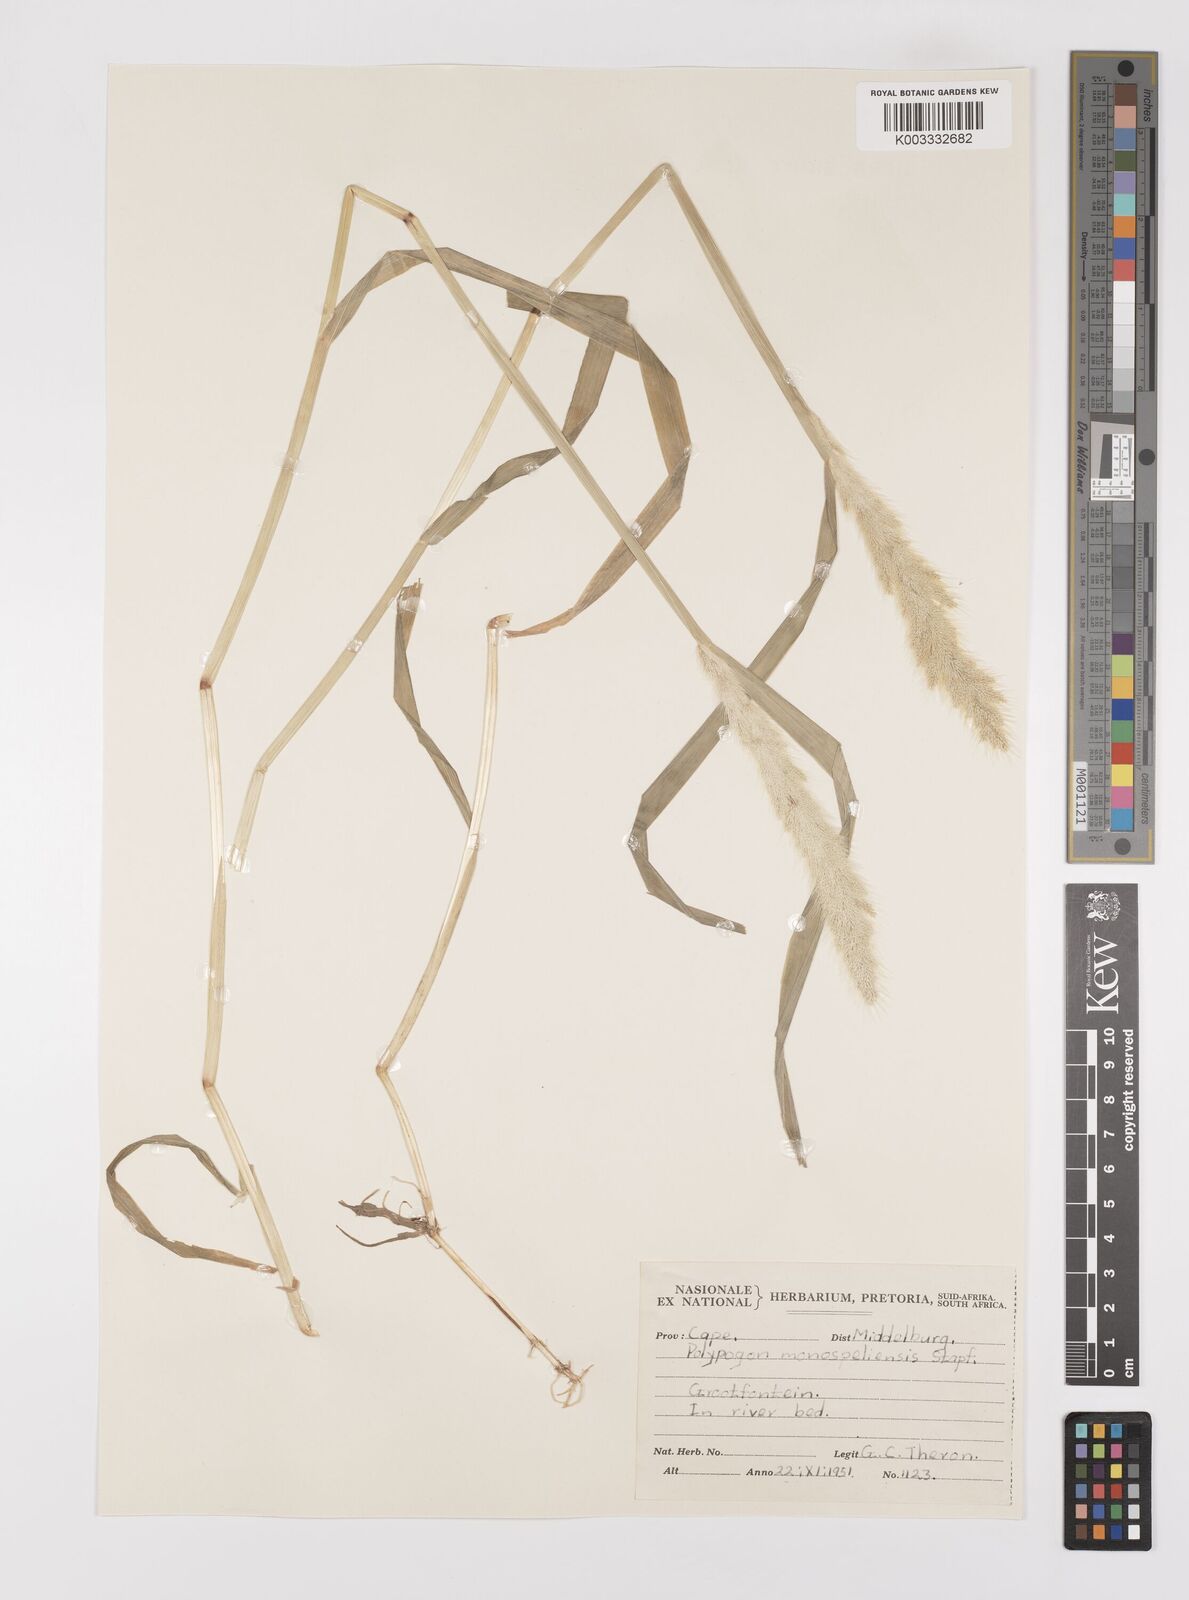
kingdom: Plantae
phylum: Tracheophyta
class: Liliopsida
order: Poales
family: Poaceae
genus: Polypogon
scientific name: Polypogon monspeliensis
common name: Annual rabbitsfoot grass
